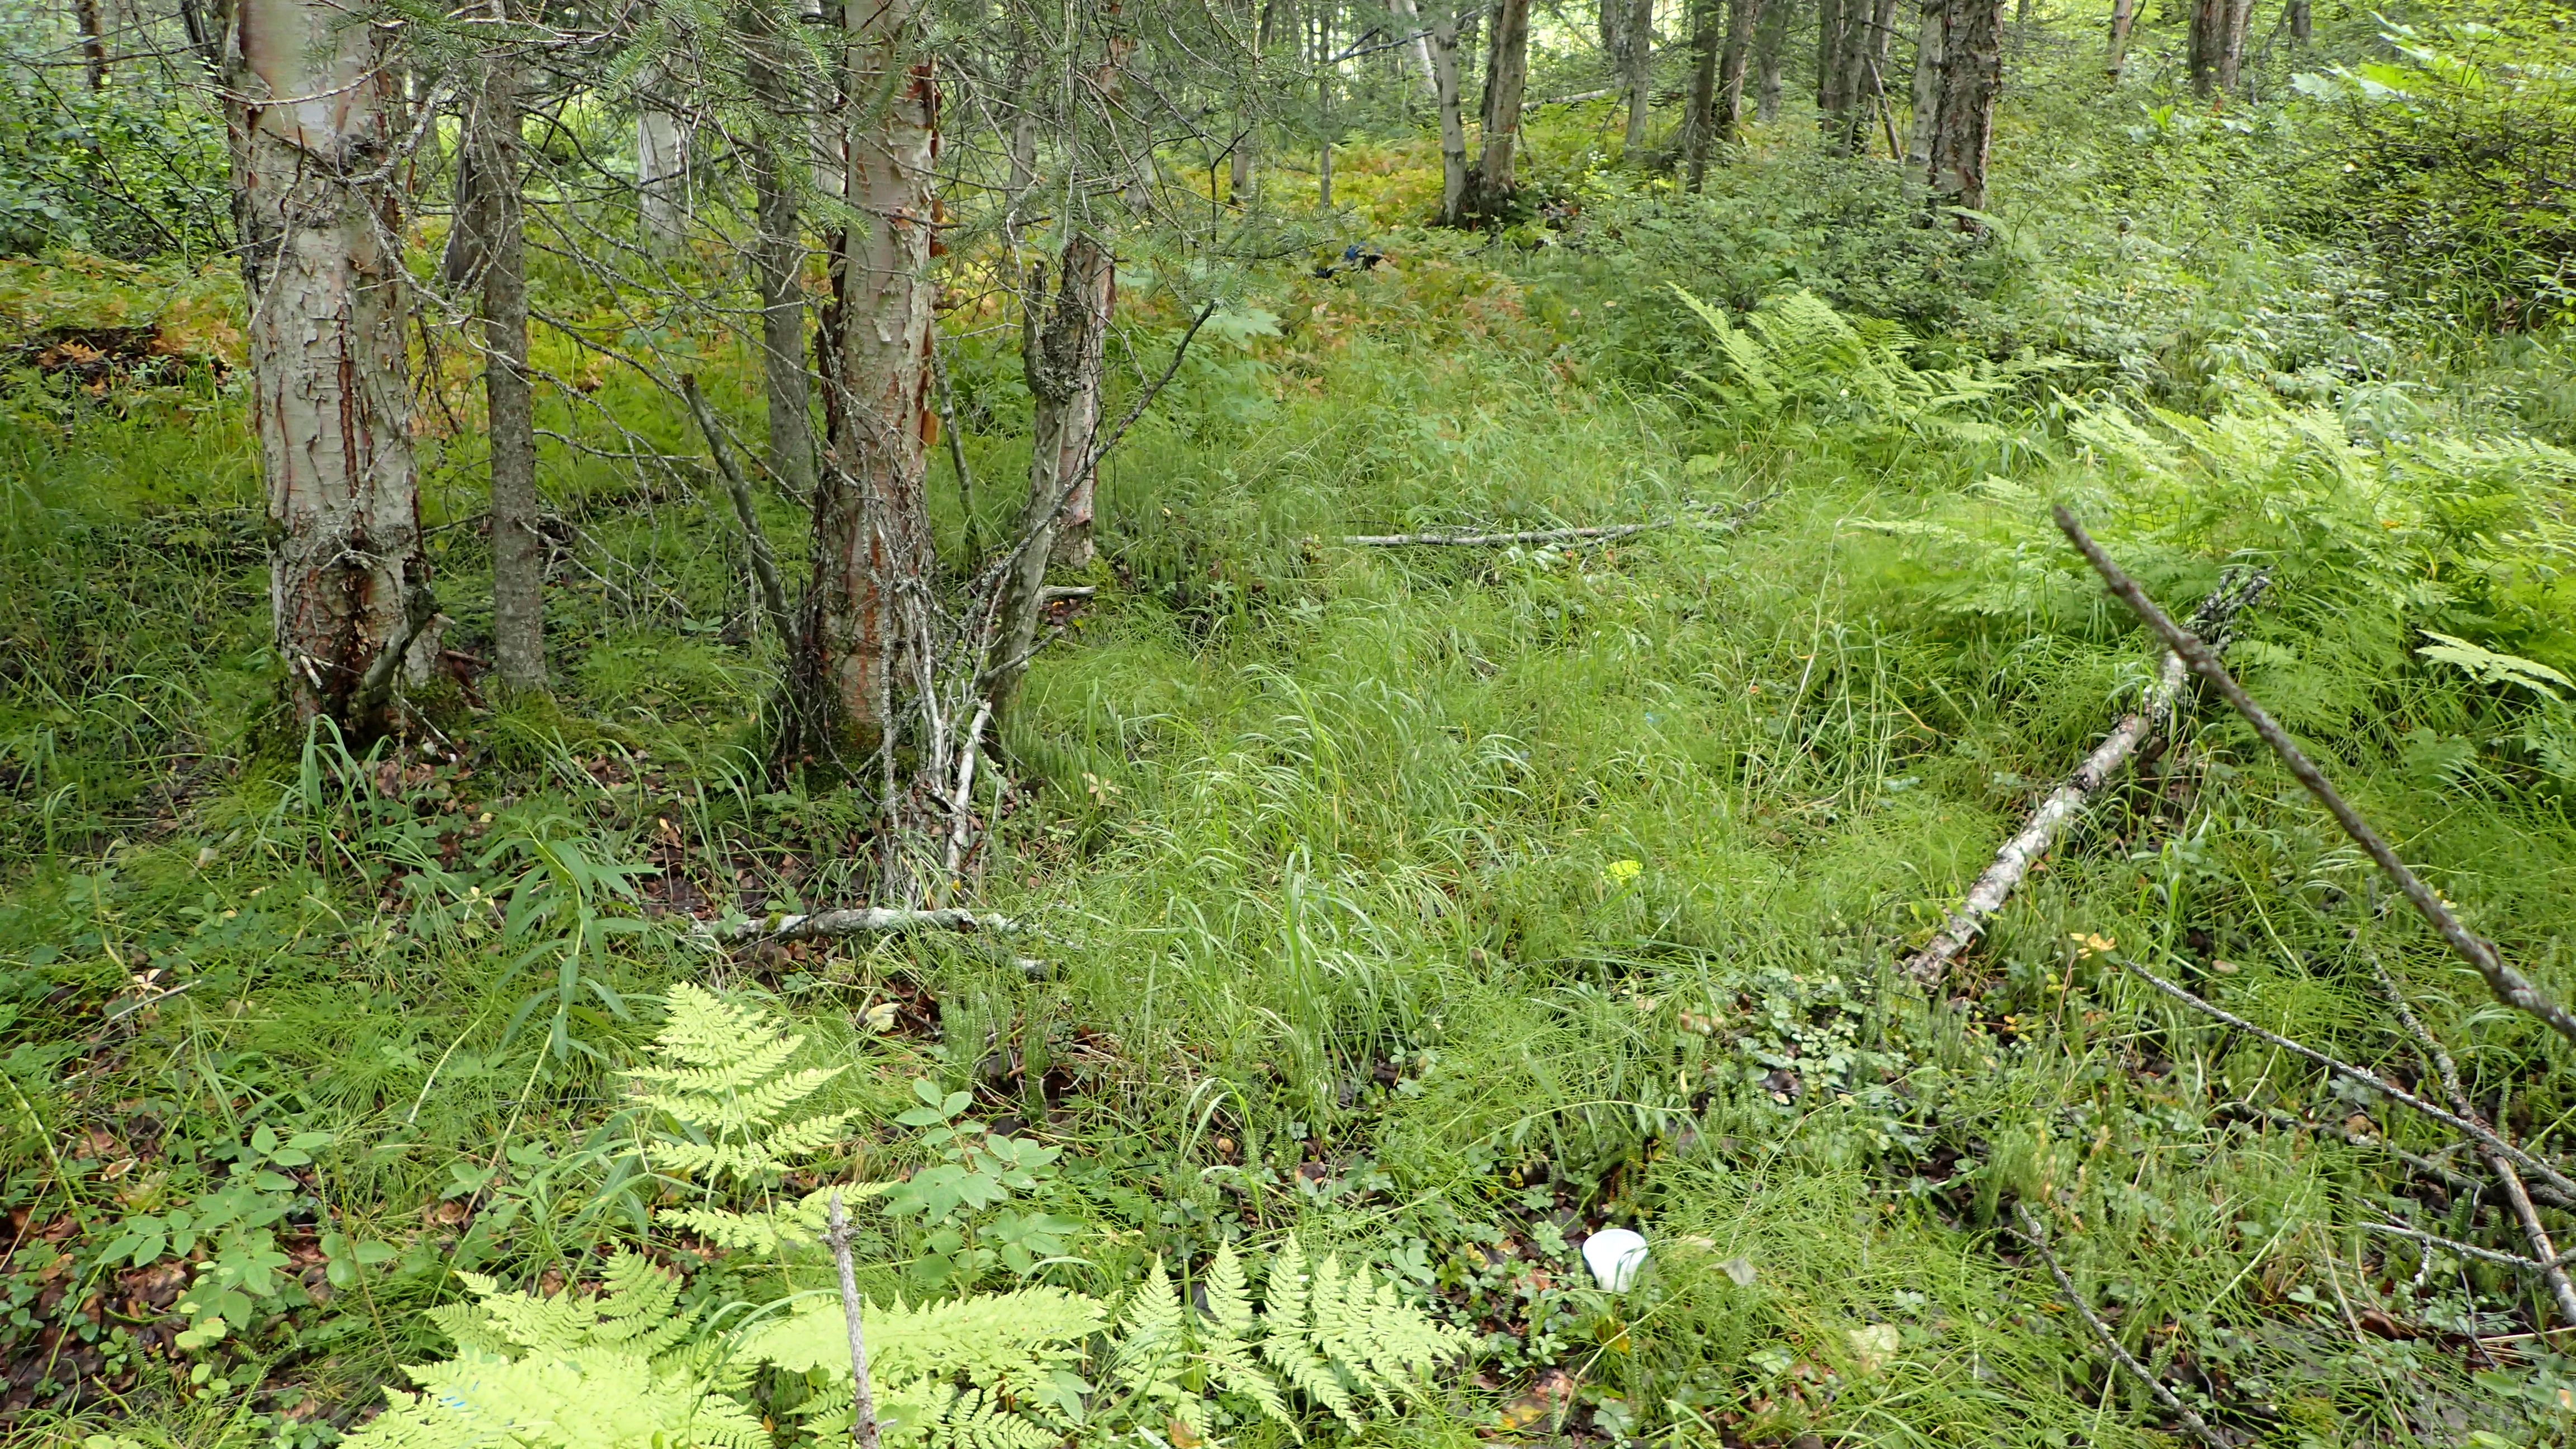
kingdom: Animalia
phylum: Arthropoda
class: Insecta
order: Diptera
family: Heleomyzidae
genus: Suillia
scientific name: Suillia mikii
